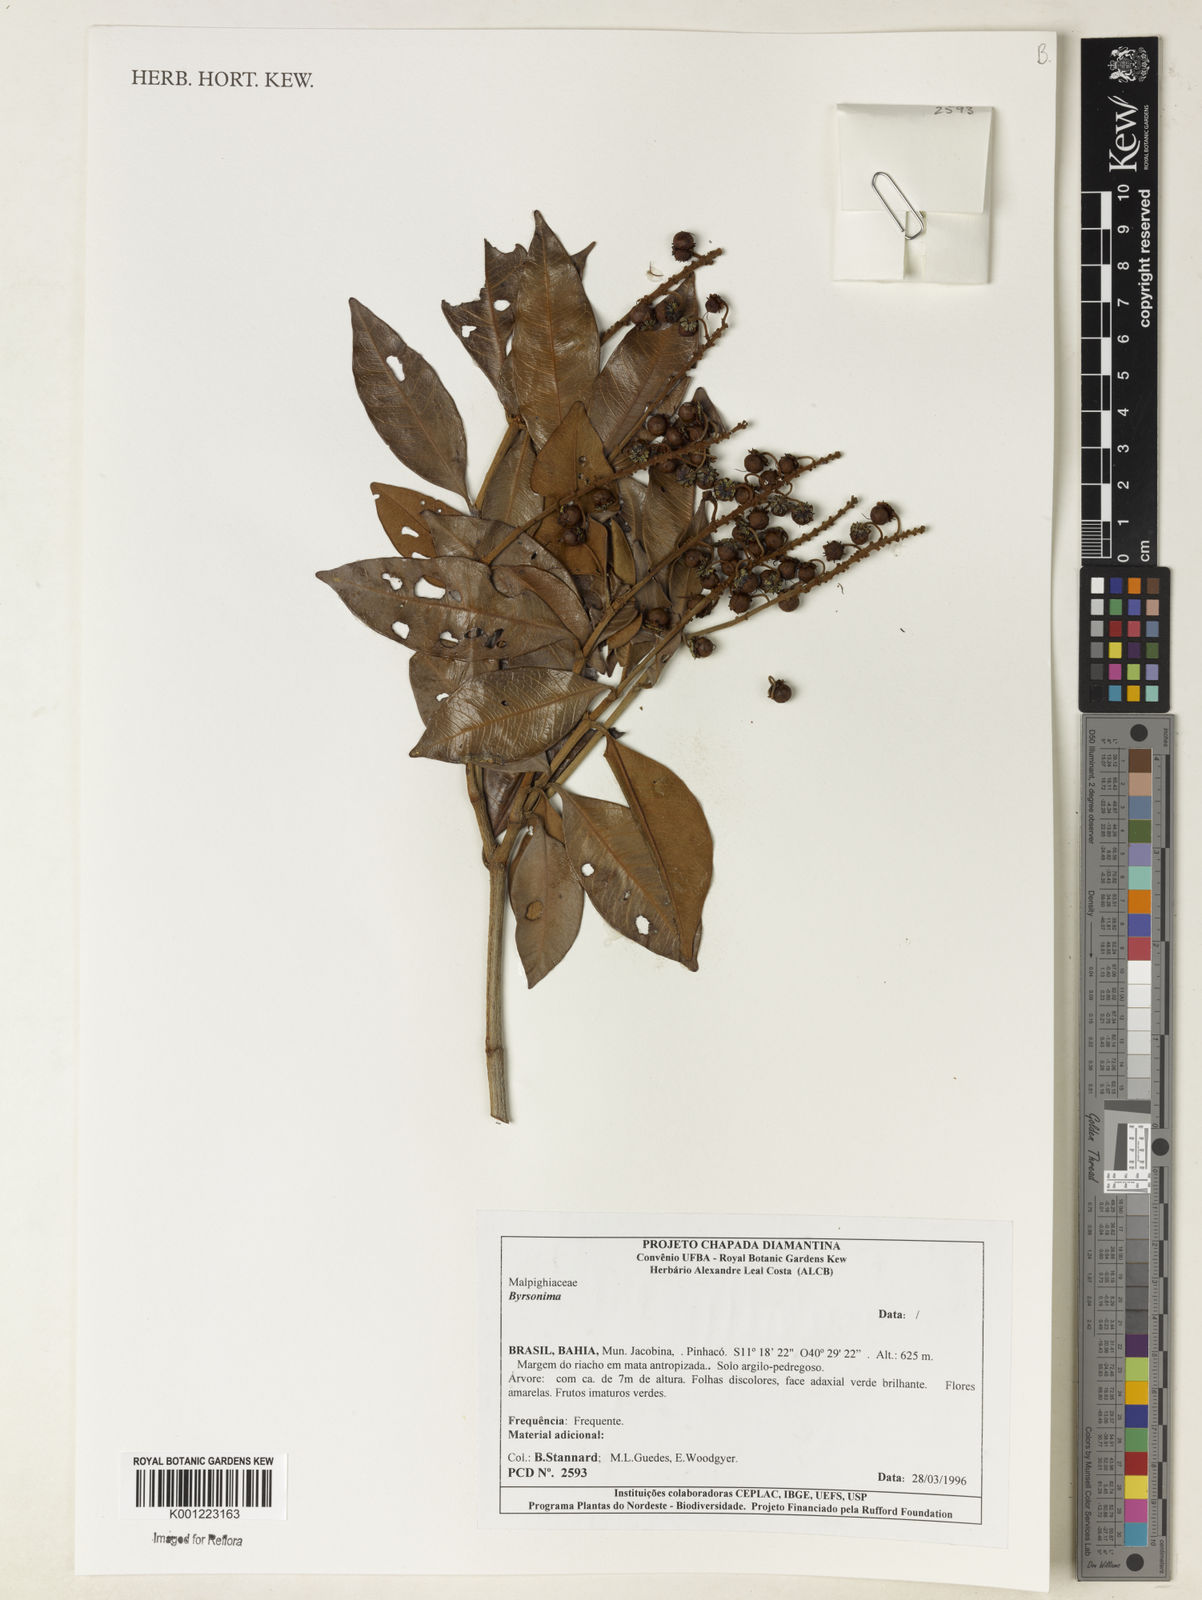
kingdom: Plantae
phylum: Tracheophyta
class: Magnoliopsida
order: Malpighiales
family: Malpighiaceae
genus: Byrsonima
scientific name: Byrsonima
